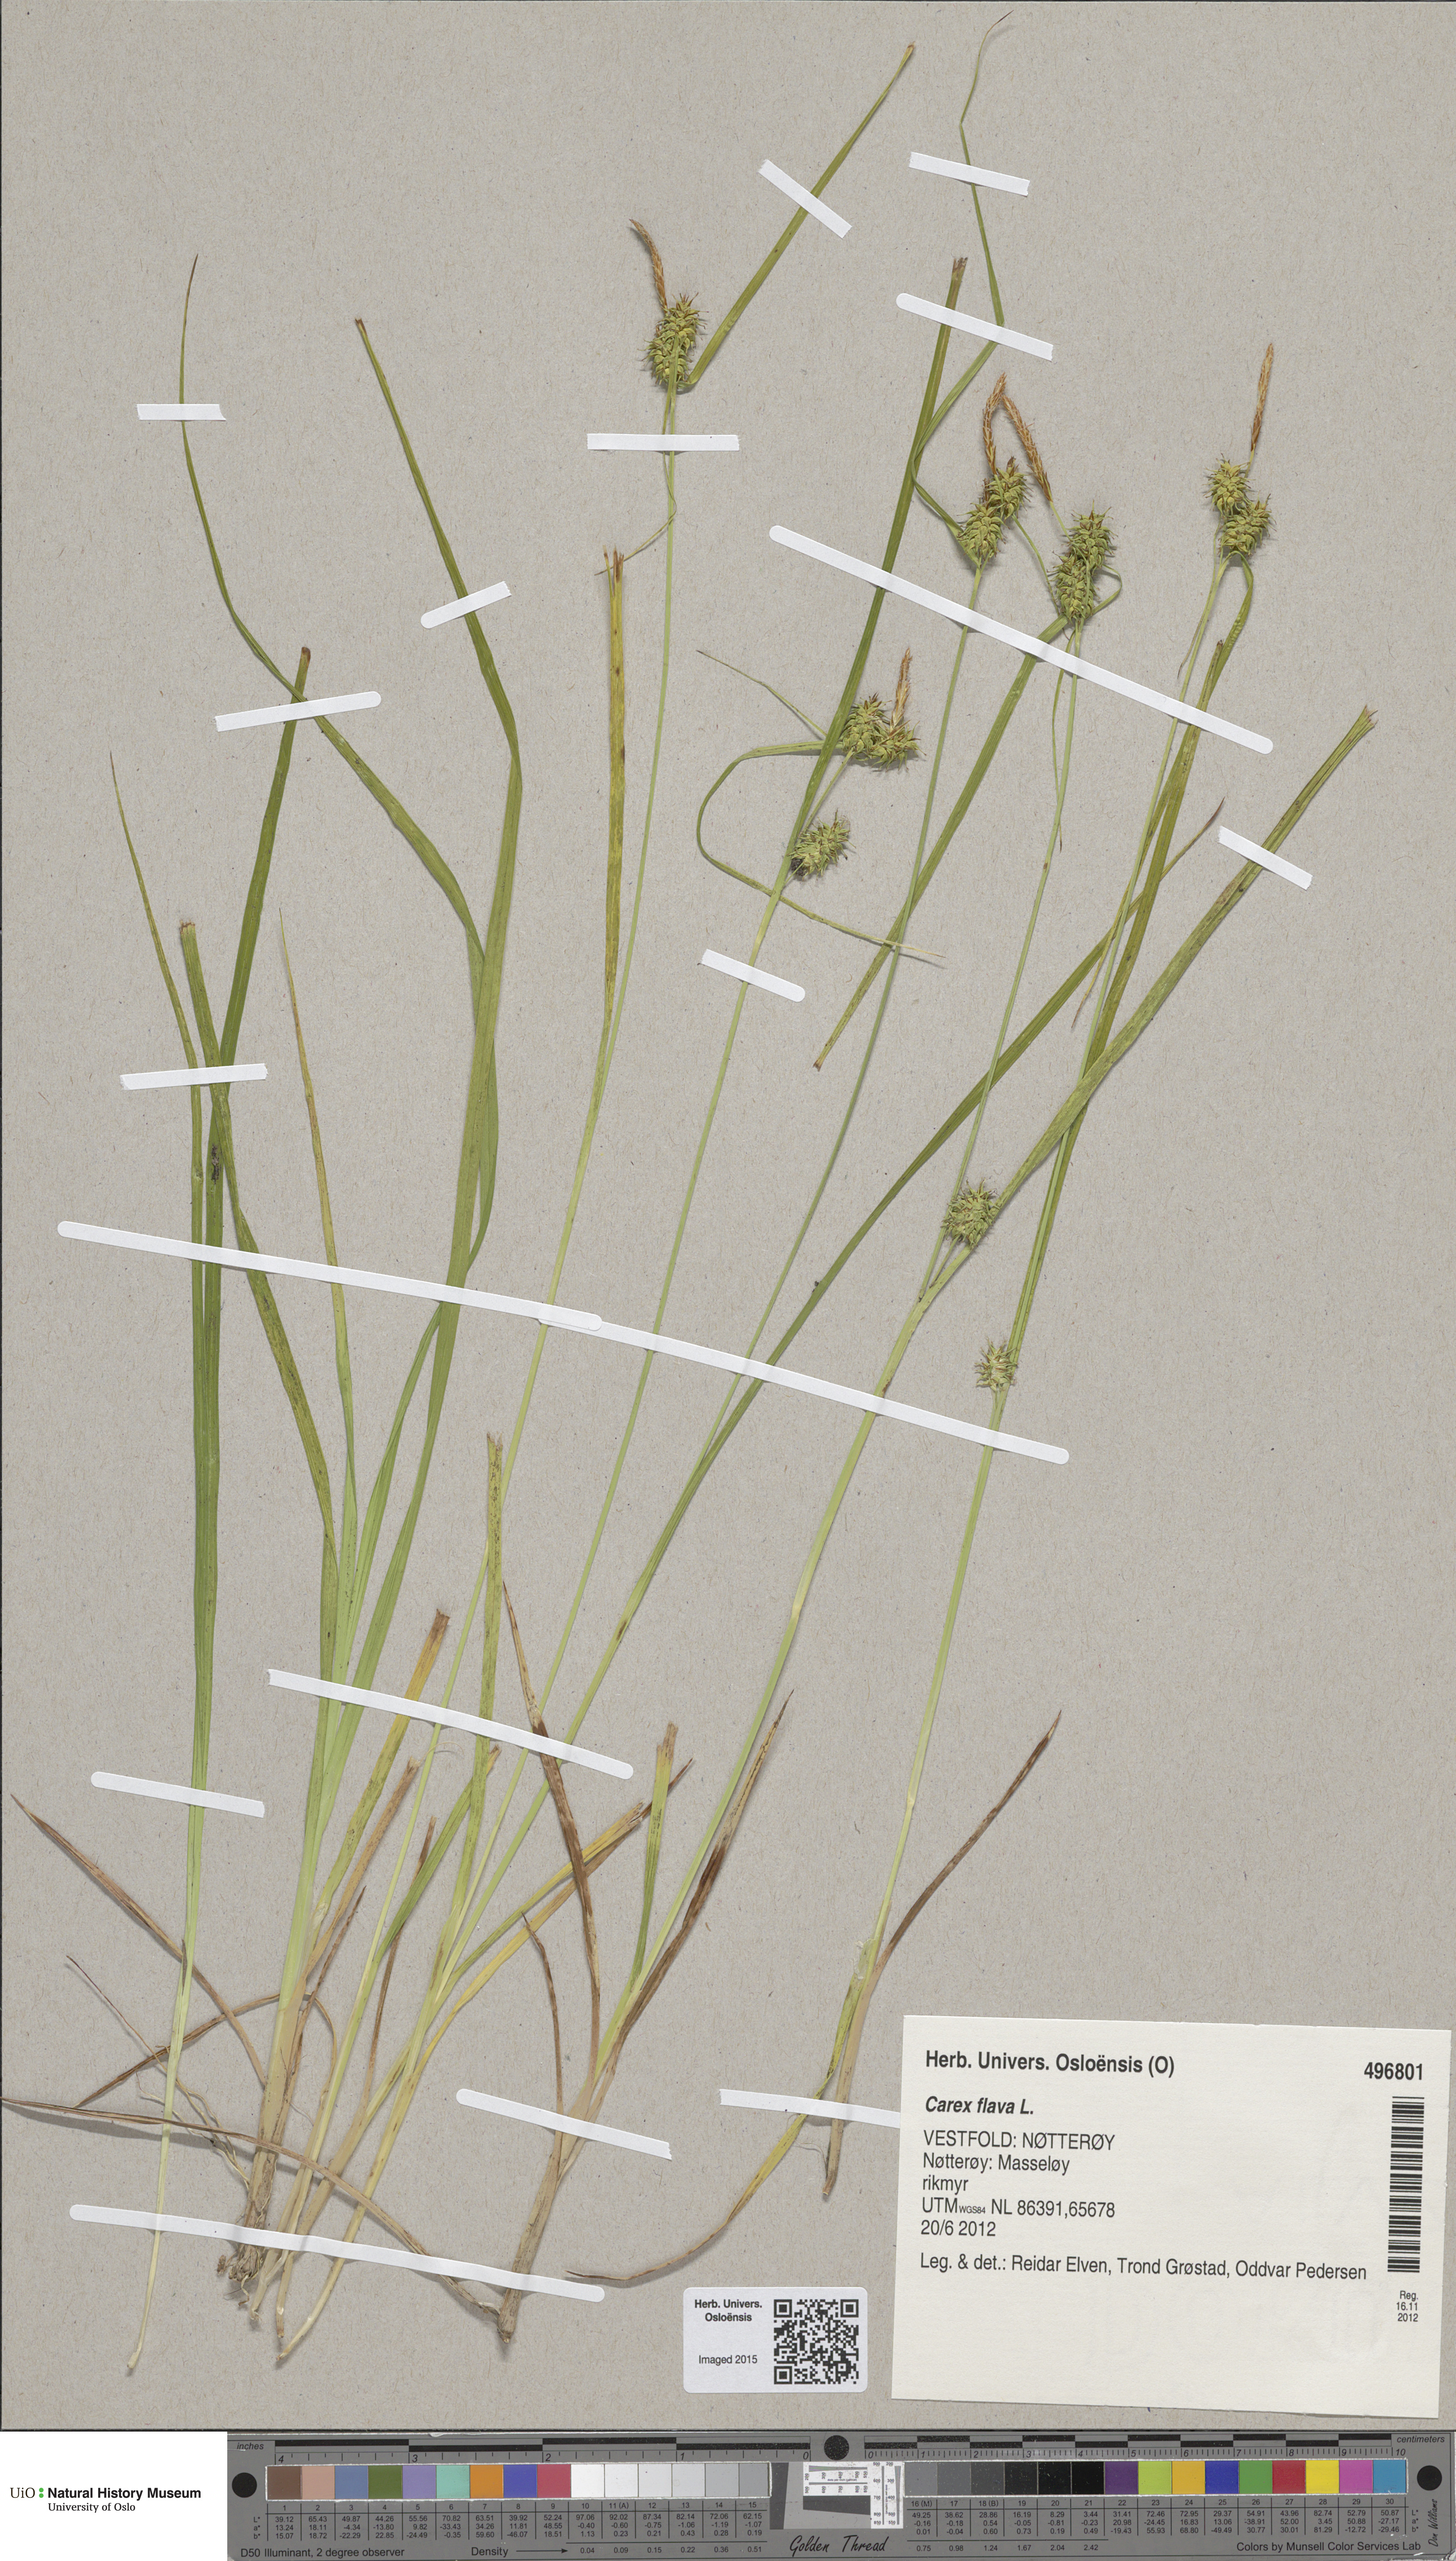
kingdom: Plantae
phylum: Tracheophyta
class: Liliopsida
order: Poales
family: Cyperaceae
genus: Carex
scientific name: Carex flava
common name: Large yellow-sedge
